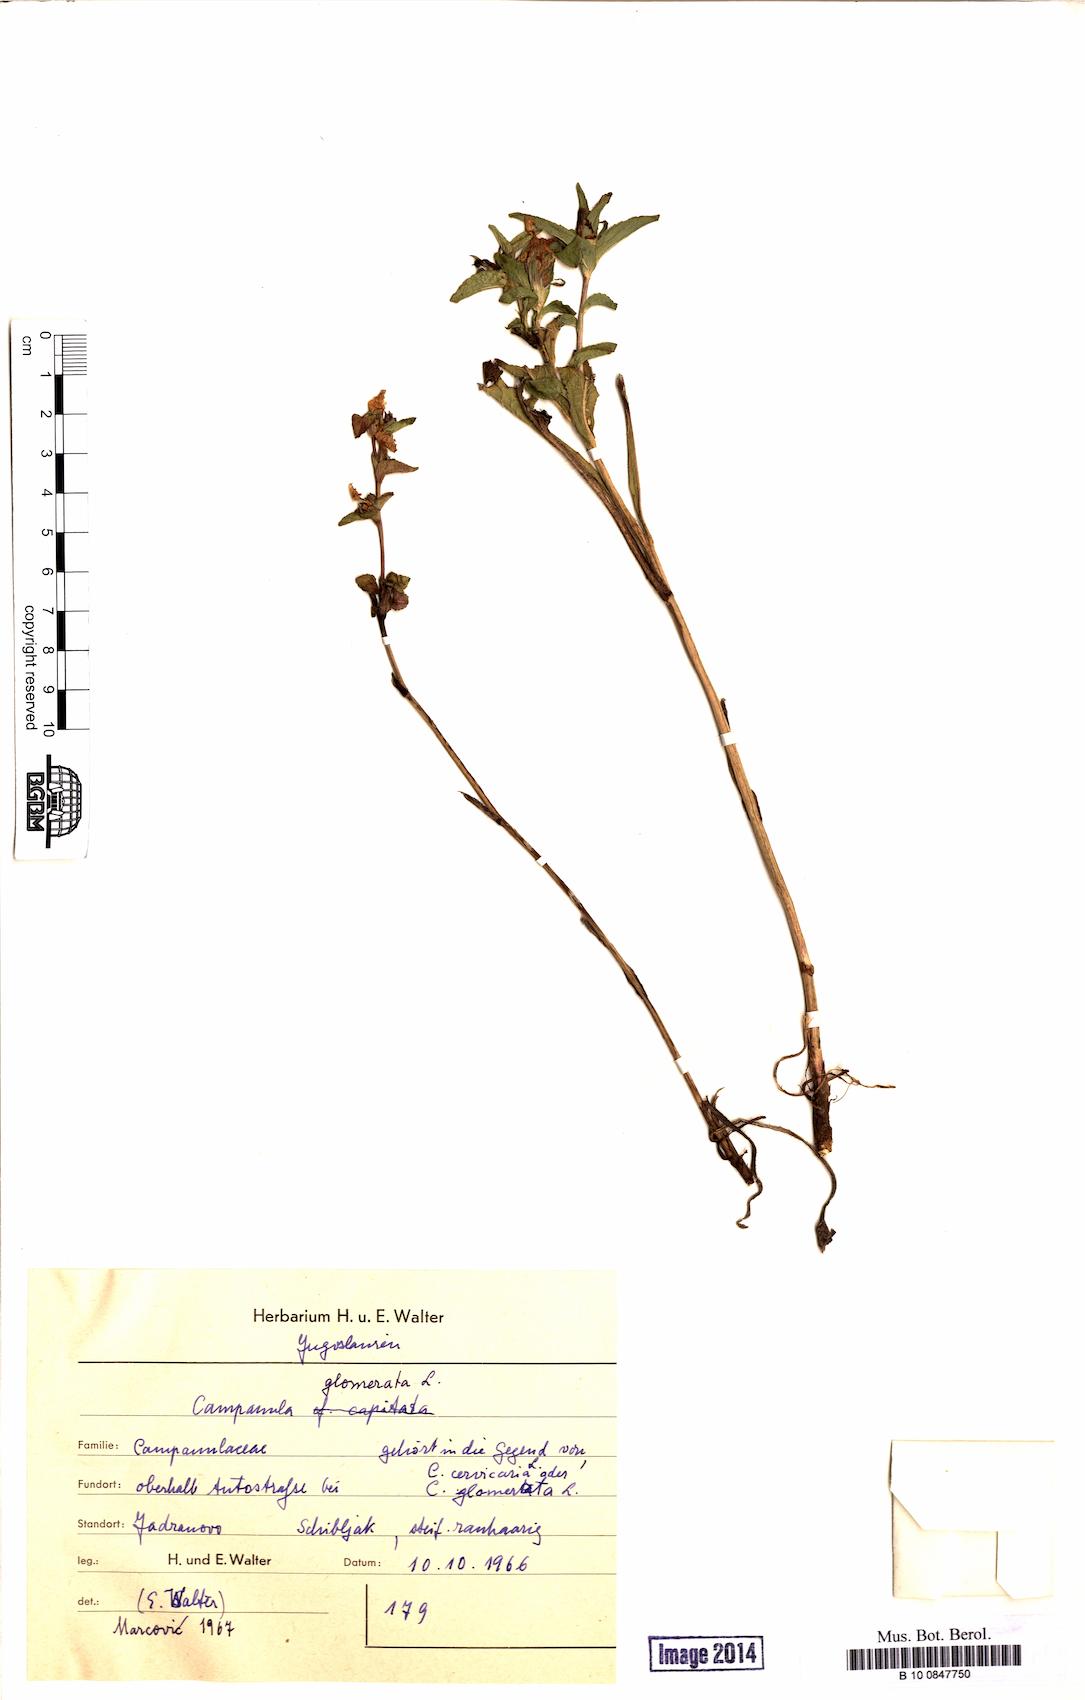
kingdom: Plantae
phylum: Tracheophyta
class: Magnoliopsida
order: Asterales
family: Campanulaceae
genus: Campanula
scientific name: Campanula glomerata
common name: Clustered bellflower
